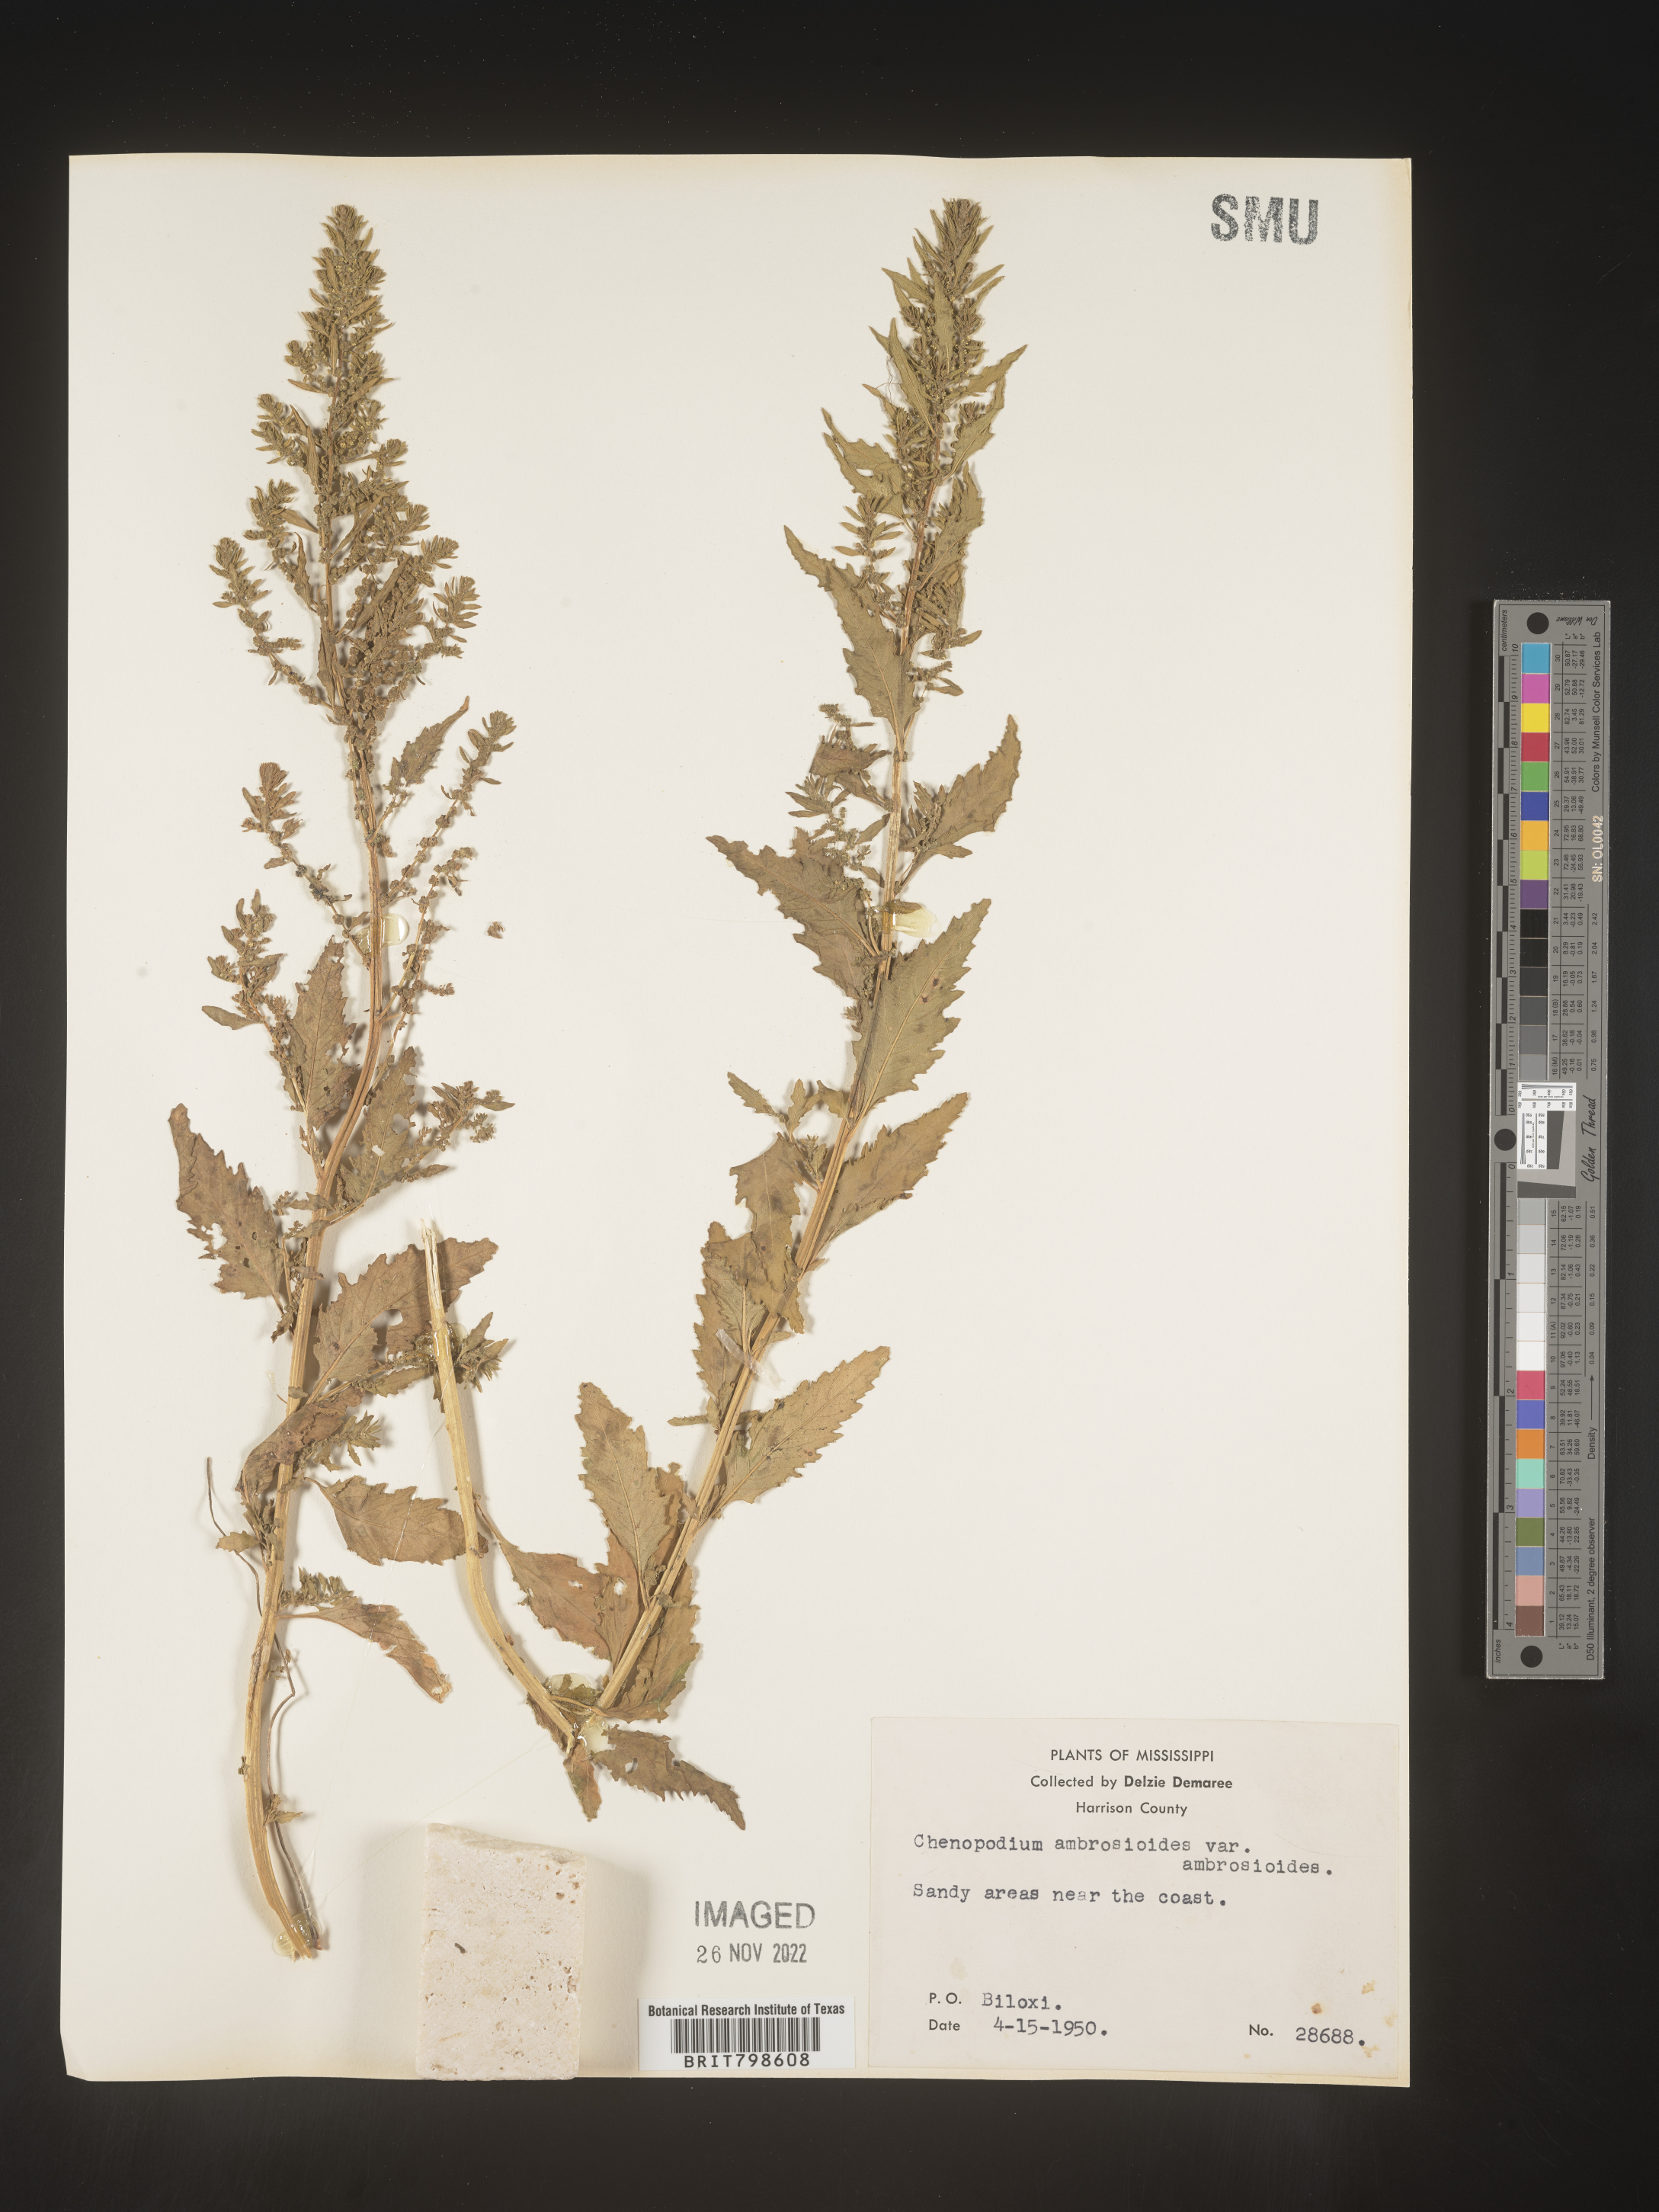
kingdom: Plantae
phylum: Tracheophyta
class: Magnoliopsida
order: Caryophyllales
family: Amaranthaceae
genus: Dysphania
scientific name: Dysphania ambrosioides
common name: Wormseed
